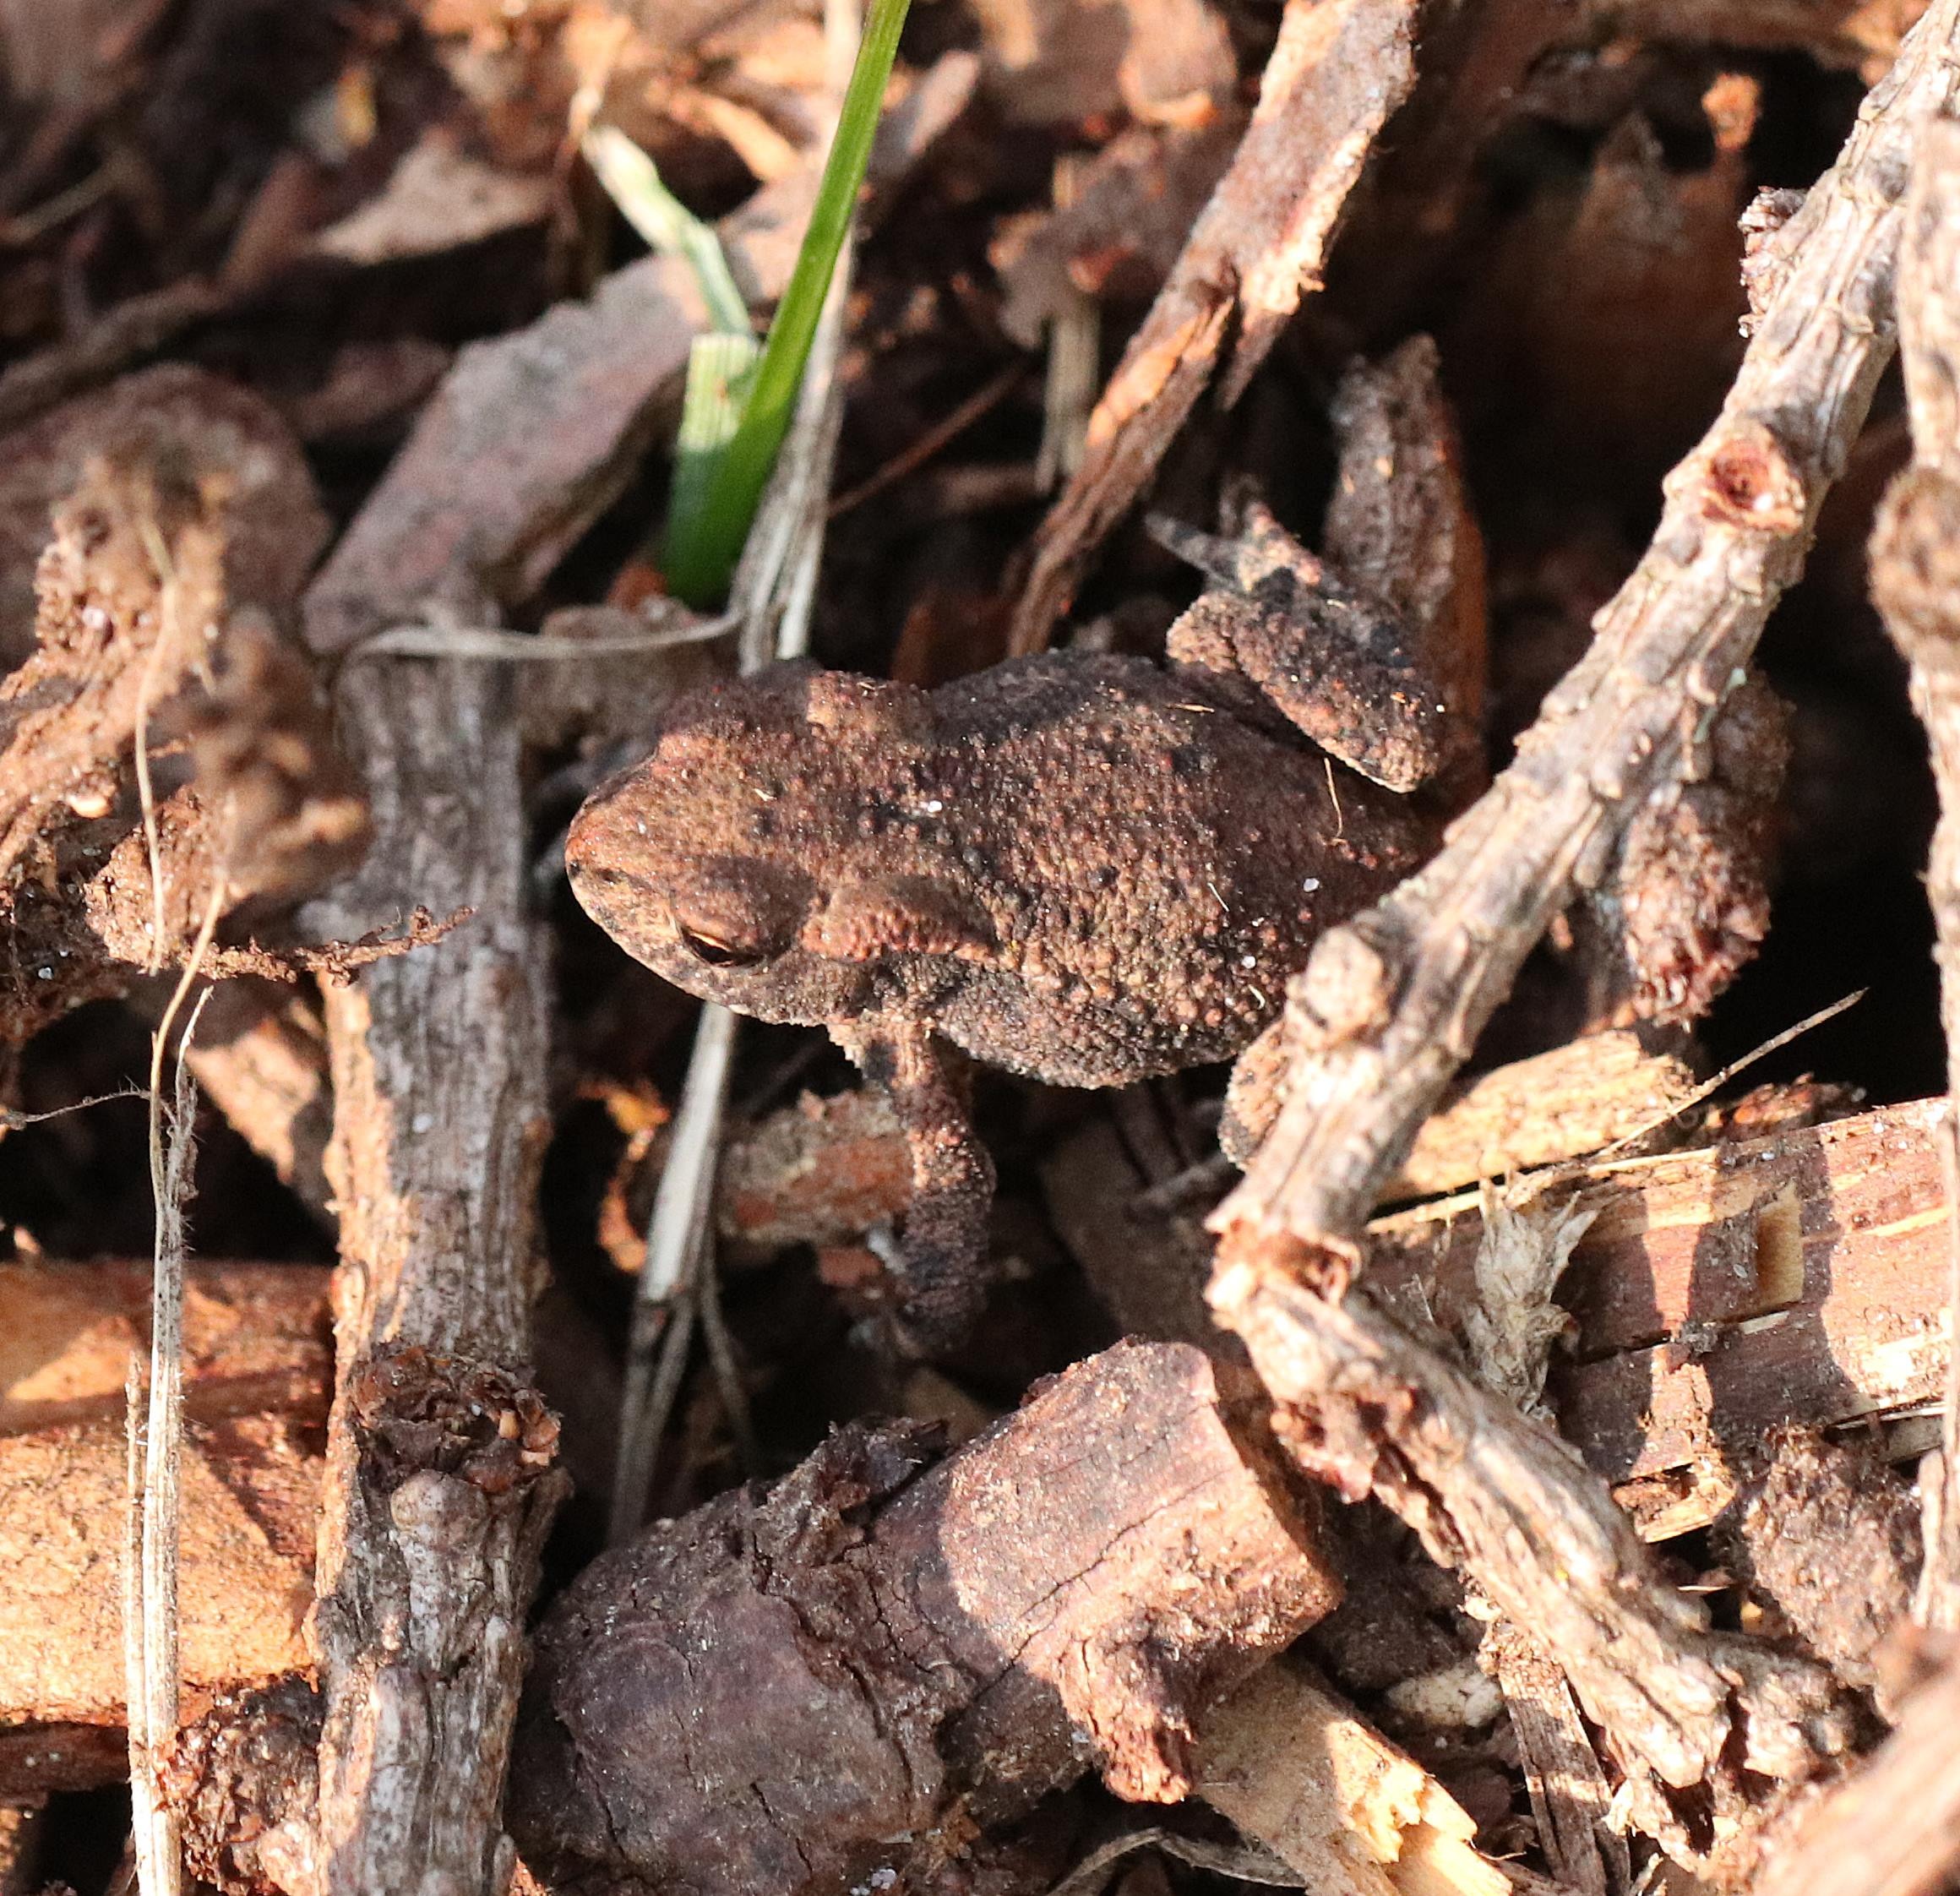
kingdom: Animalia
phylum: Chordata
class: Amphibia
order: Anura
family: Bufonidae
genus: Bufo
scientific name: Bufo bufo
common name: Skrubtudse
